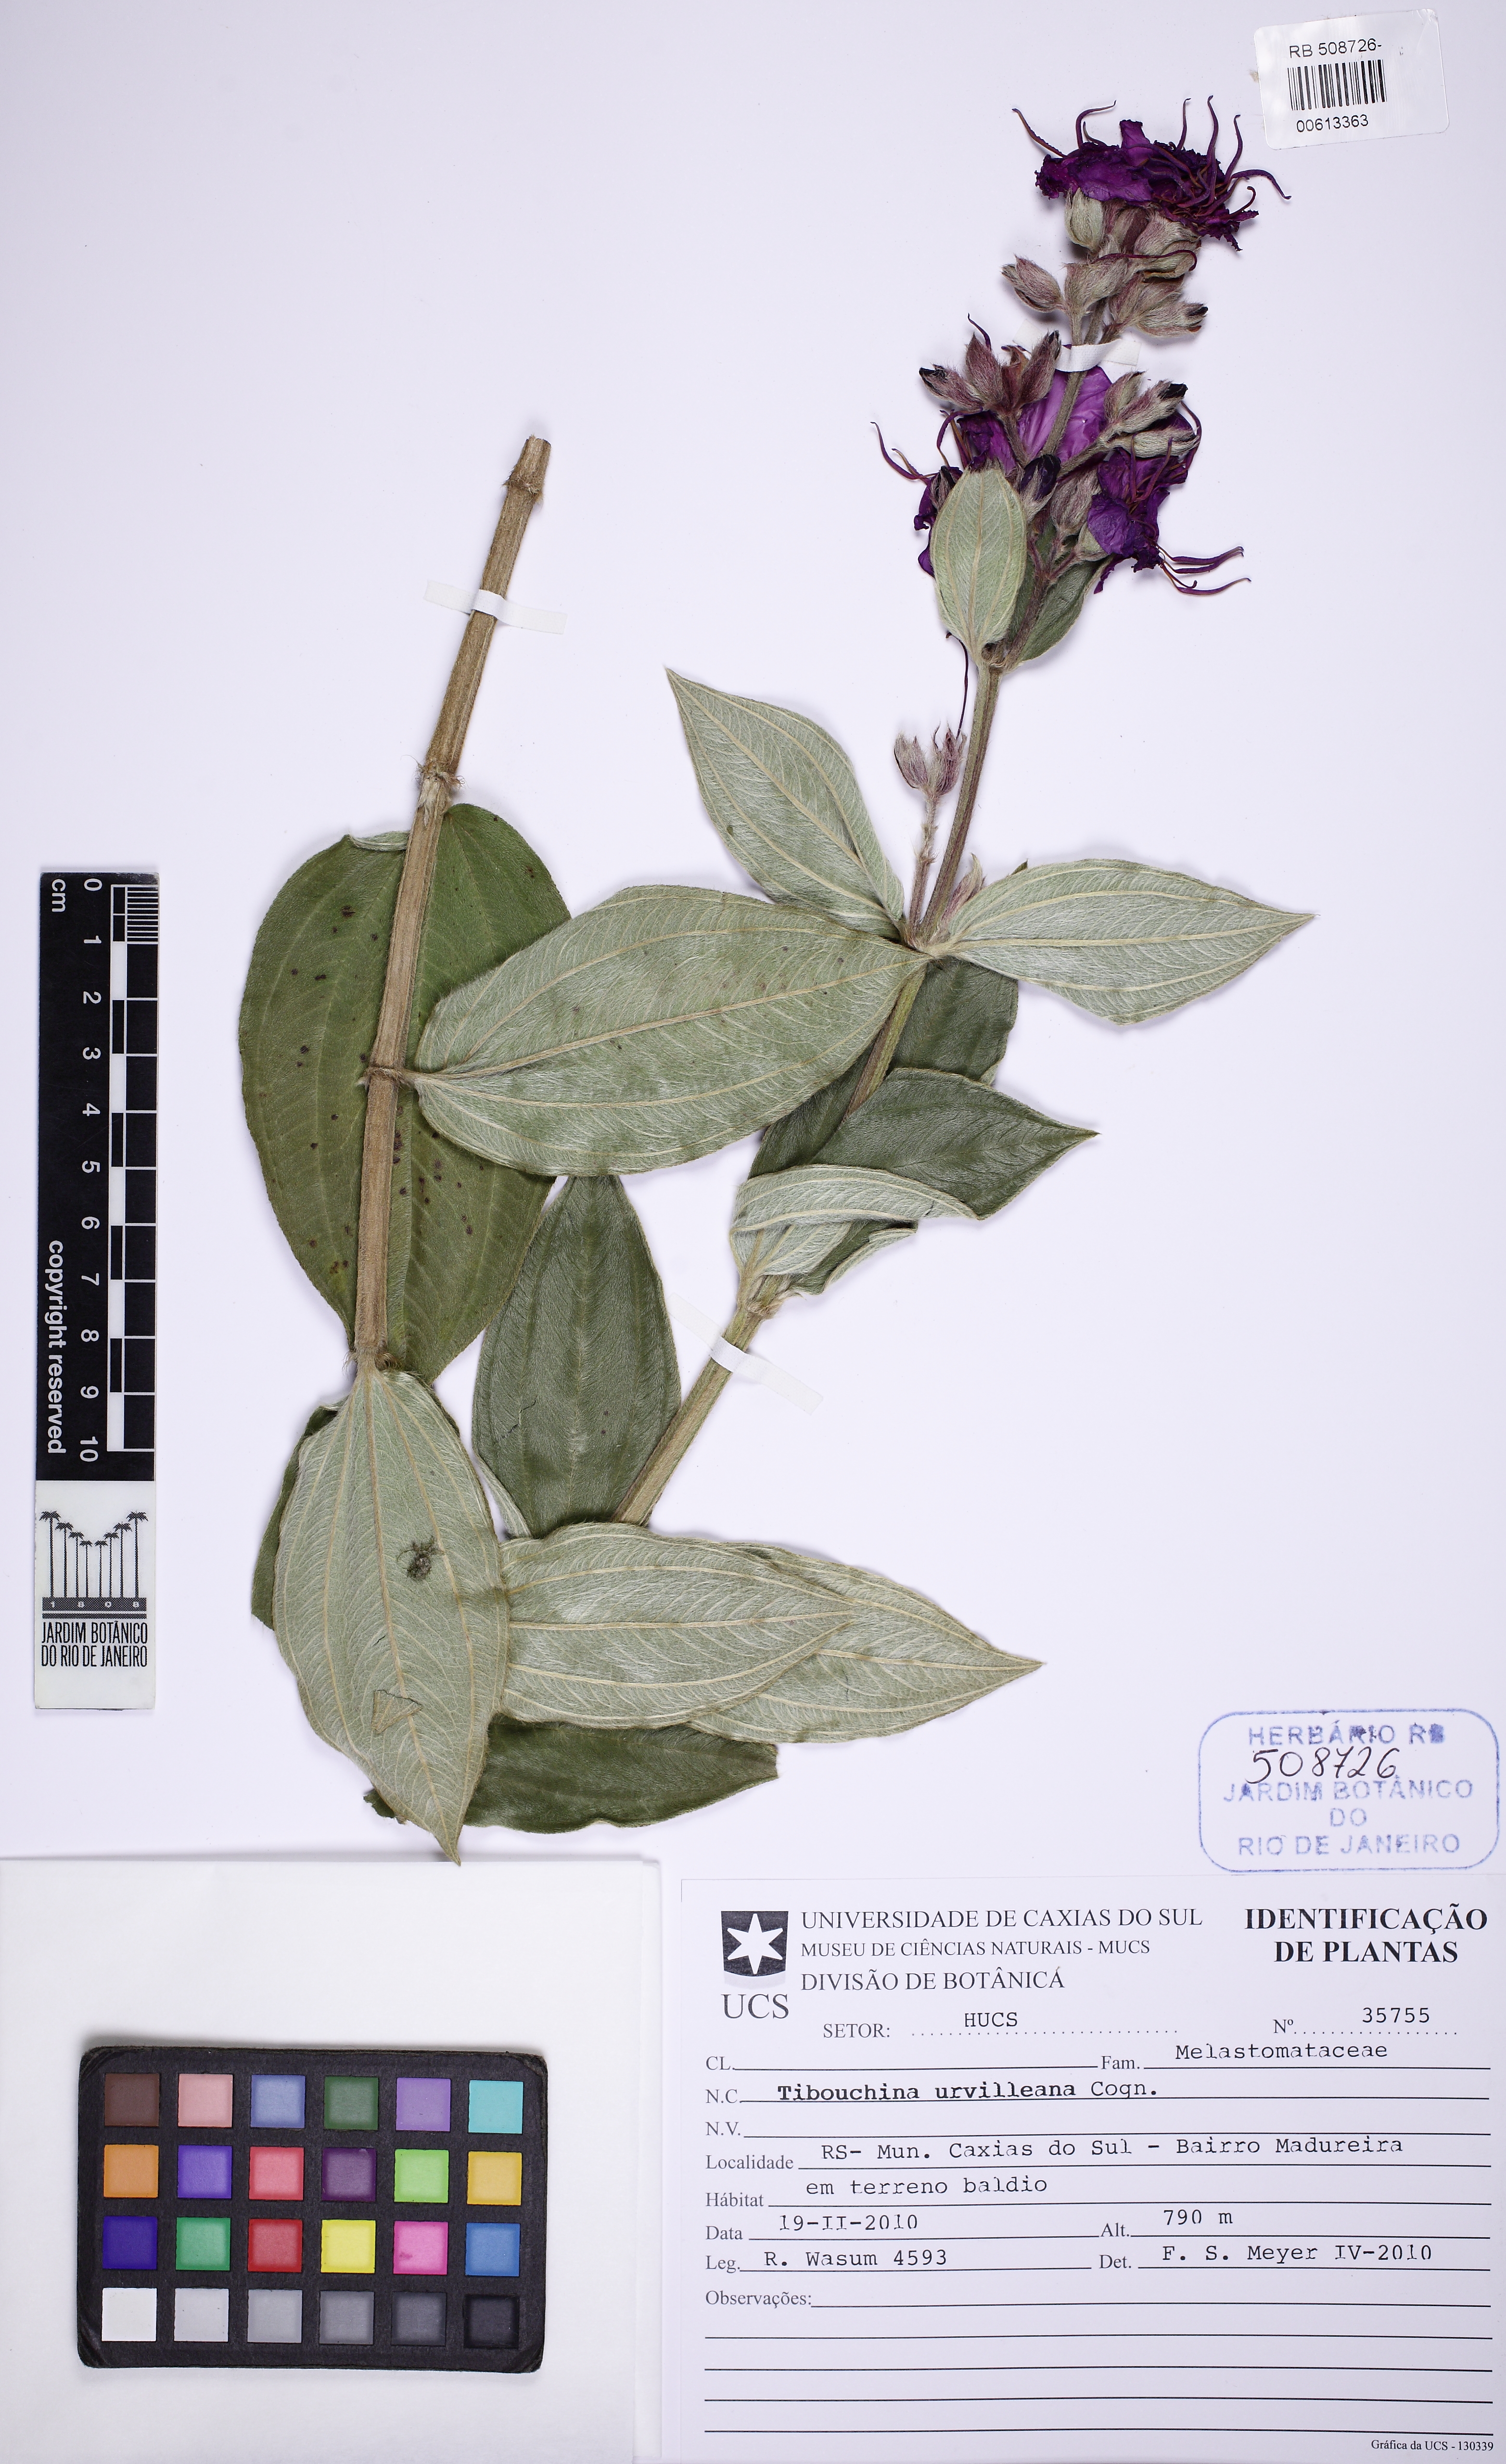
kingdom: Plantae
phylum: Tracheophyta
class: Magnoliopsida
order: Myrtales
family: Melastomataceae
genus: Pleroma
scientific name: Pleroma urvilleanum
